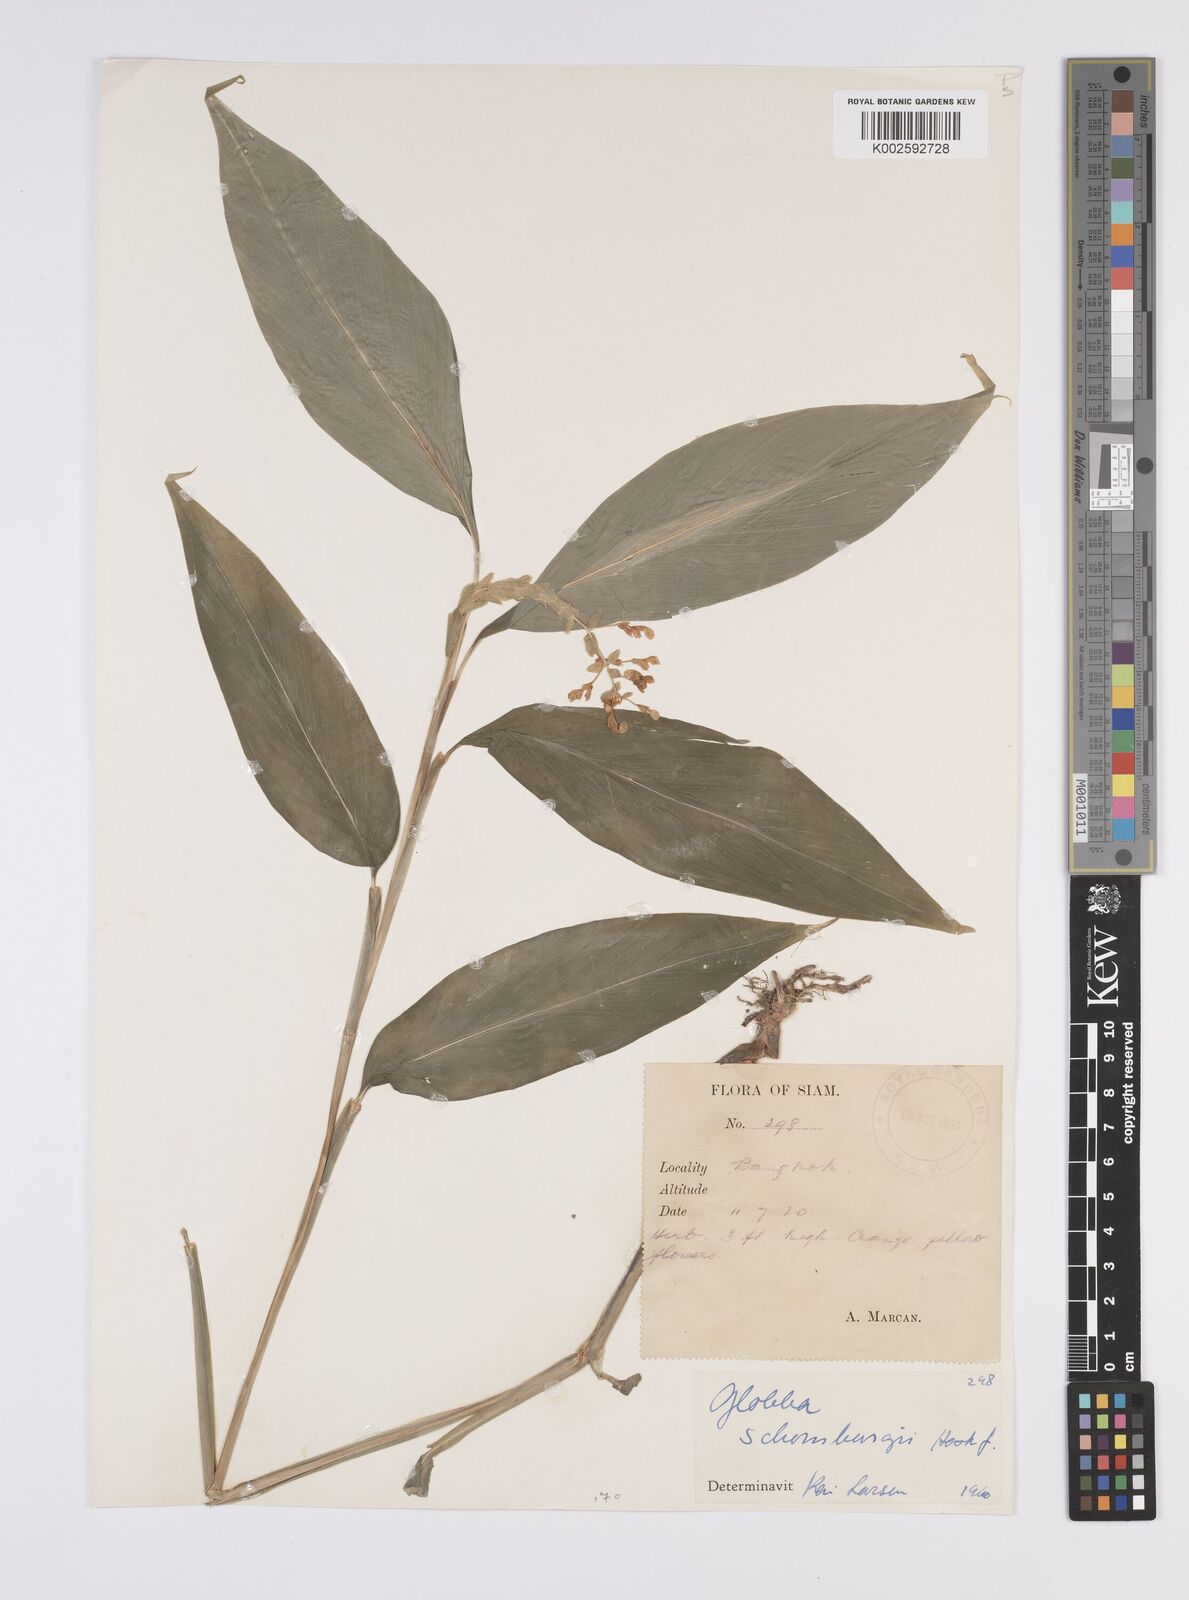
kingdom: Plantae
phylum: Tracheophyta
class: Liliopsida
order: Zingiberales
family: Zingiberaceae
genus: Globba
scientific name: Globba schomburgkii
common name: Dancing girl ginger
